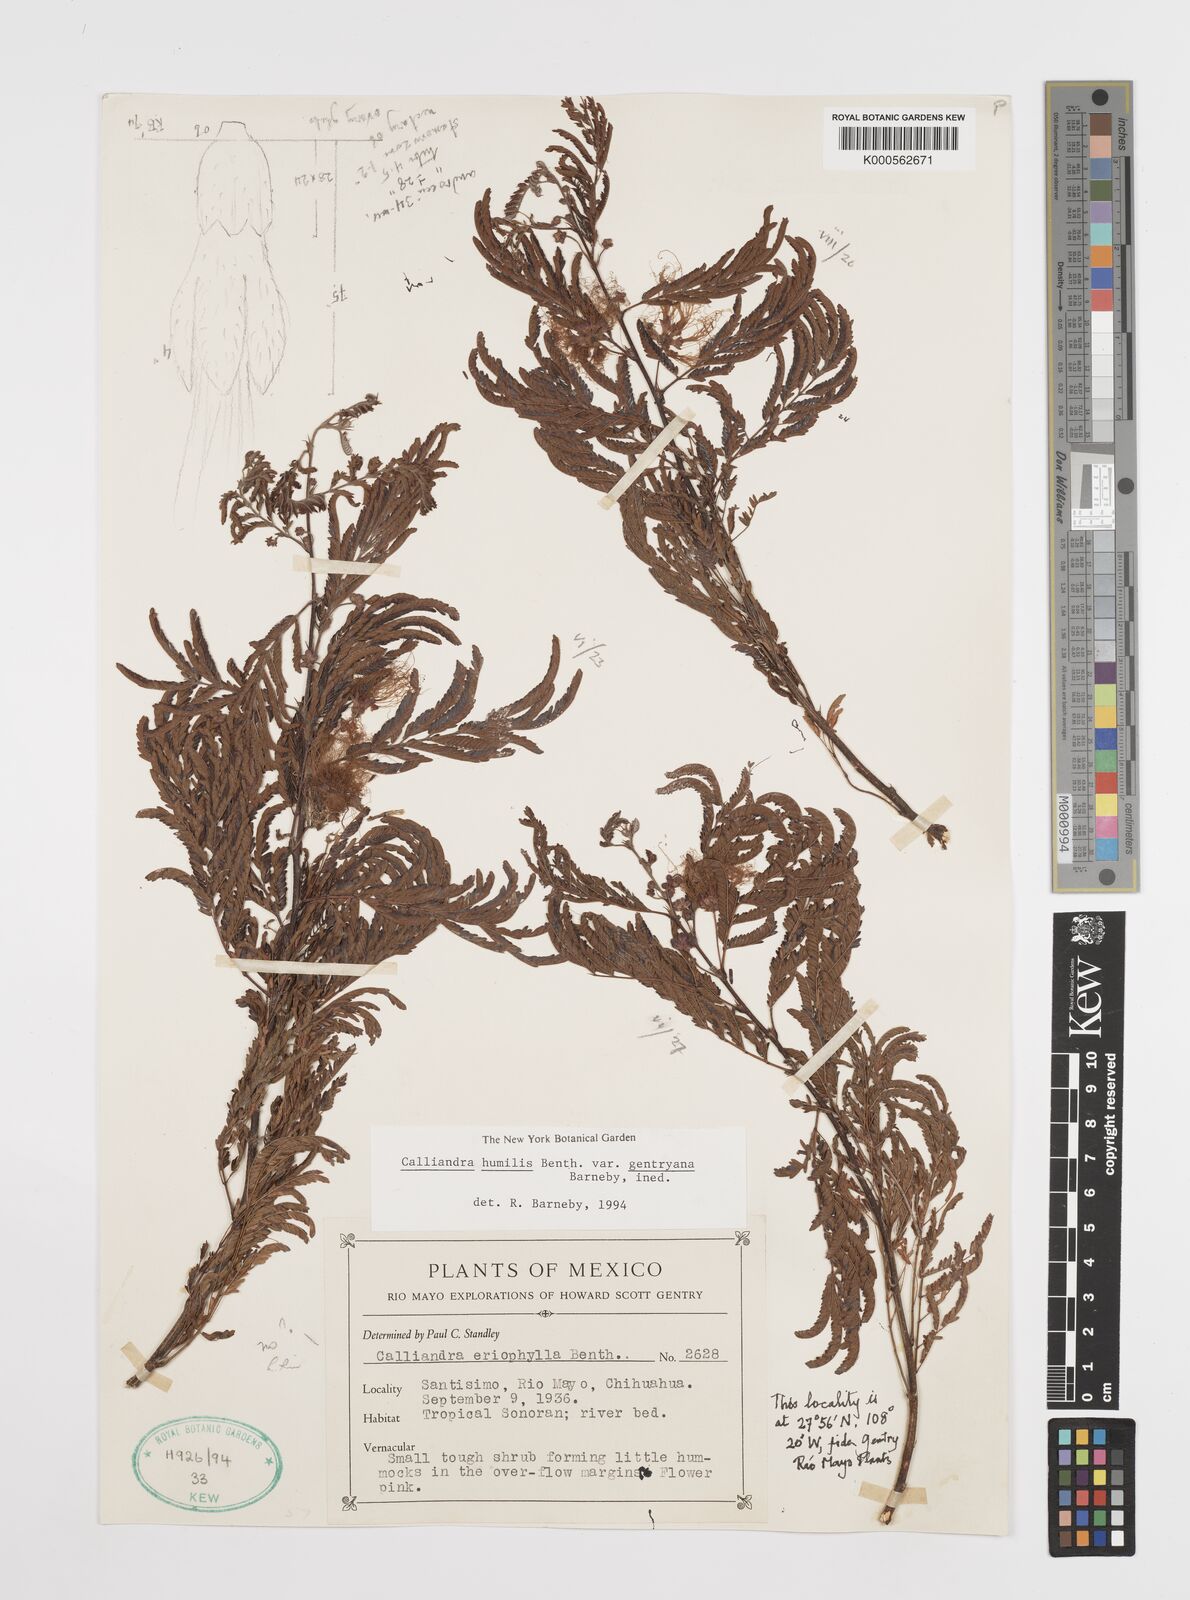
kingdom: Plantae
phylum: Tracheophyta
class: Magnoliopsida
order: Fabales
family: Fabaceae
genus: Calliandra
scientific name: Calliandra humilis
